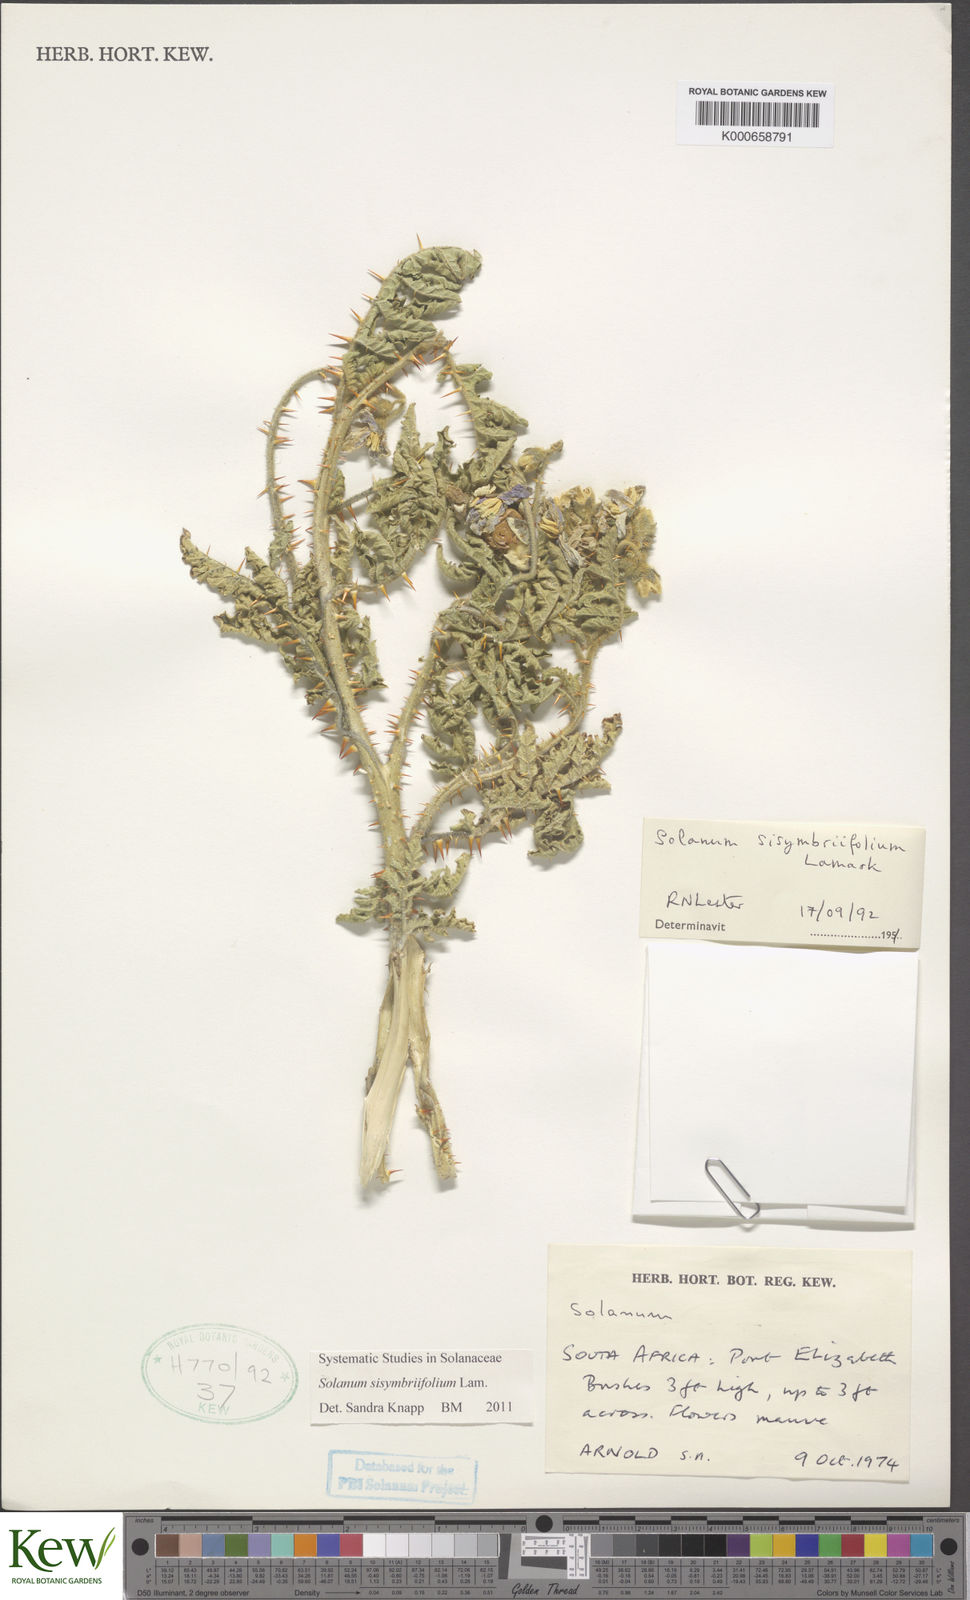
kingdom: Plantae
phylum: Tracheophyta
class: Magnoliopsida
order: Solanales
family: Solanaceae
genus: Solanum
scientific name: Solanum sisymbriifolium
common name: Red buffalo-bur
